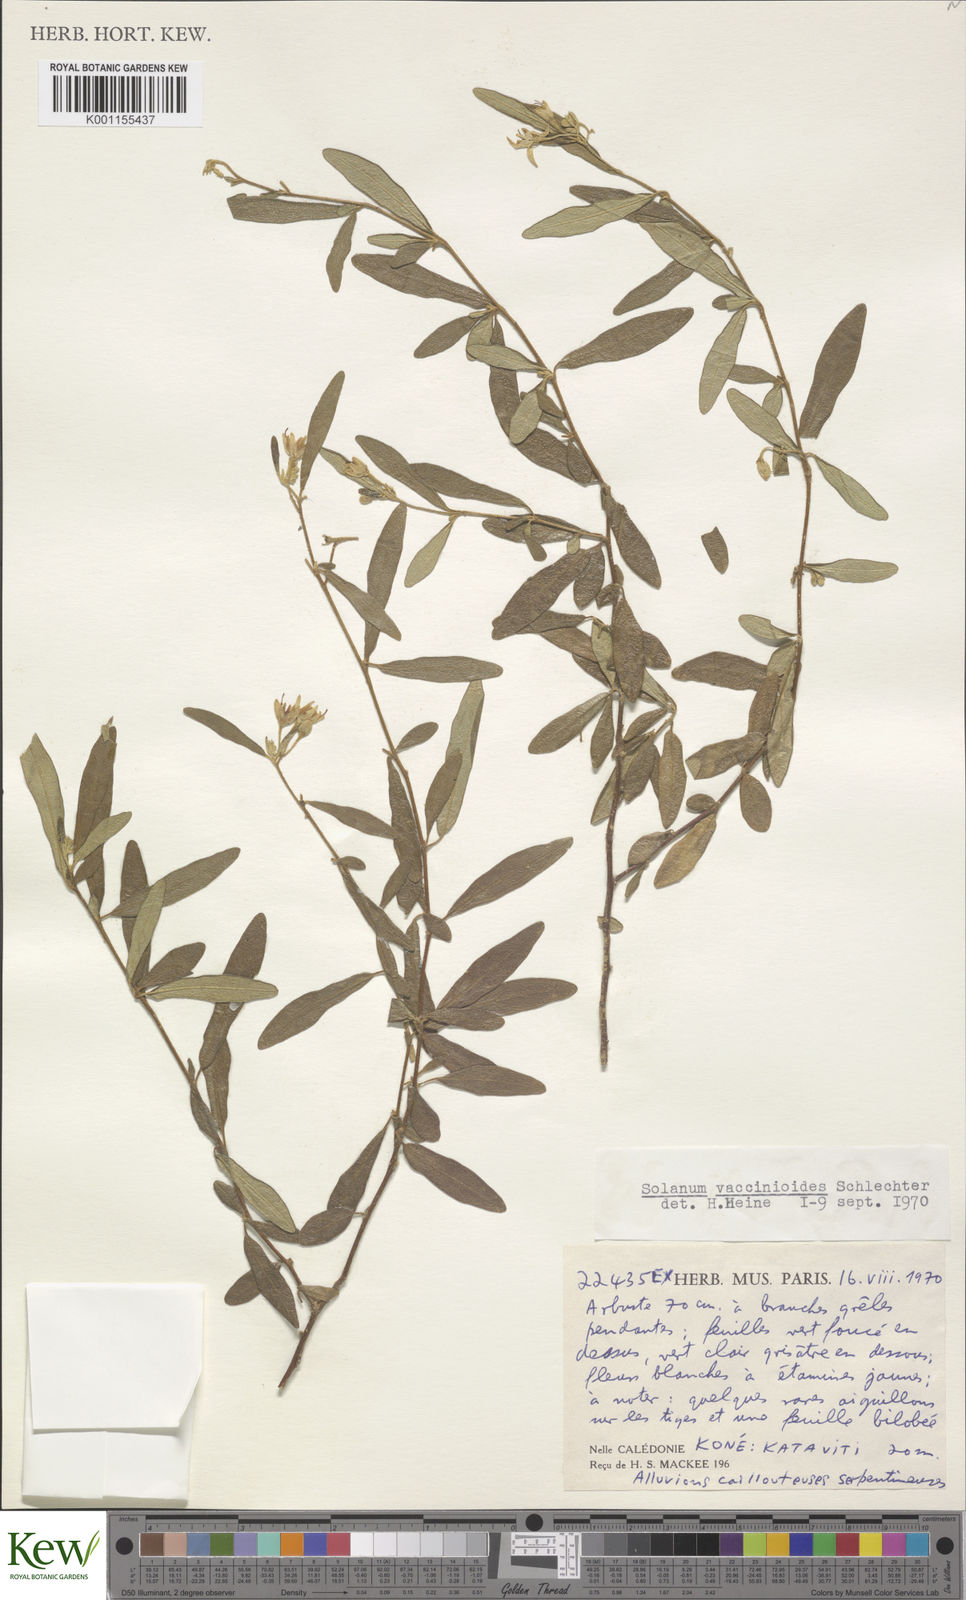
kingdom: Plantae
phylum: Tracheophyta
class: Magnoliopsida
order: Solanales
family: Solanaceae
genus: Solanum
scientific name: Solanum vaccinioides
